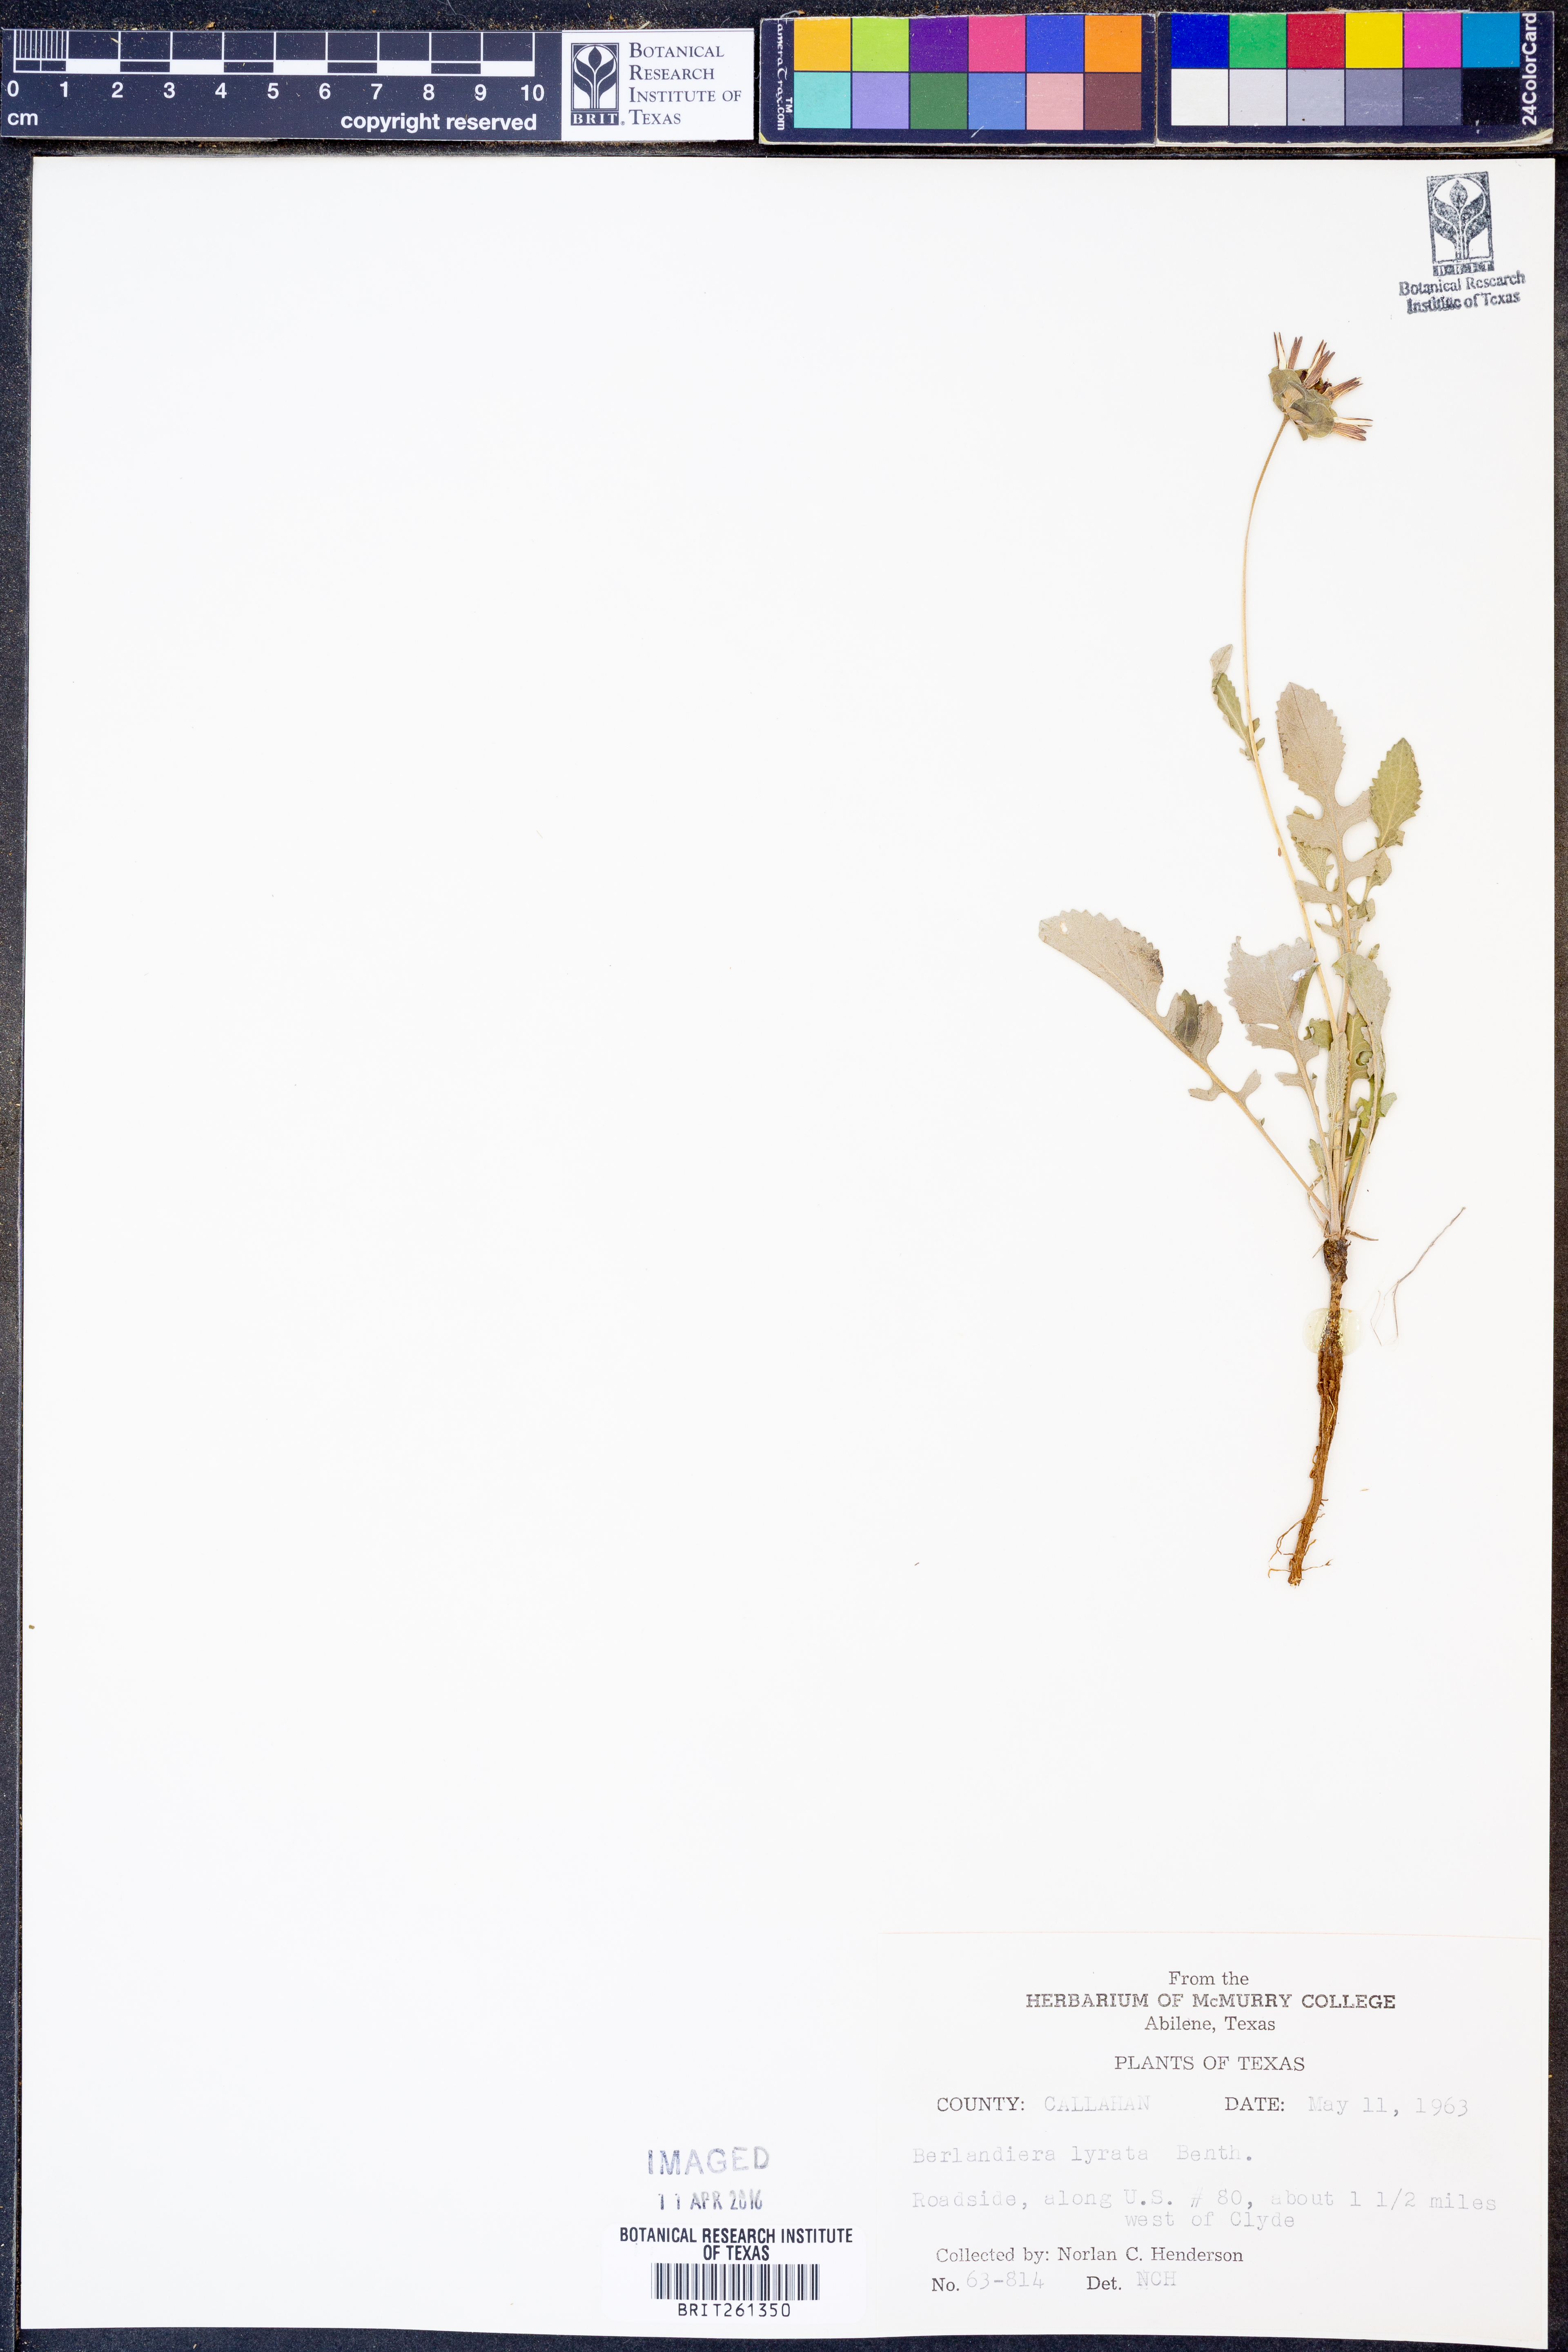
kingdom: Plantae
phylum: Tracheophyta
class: Magnoliopsida
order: Asterales
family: Asteraceae
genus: Berlandiera
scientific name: Berlandiera lyrata
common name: Chocolate-flower
